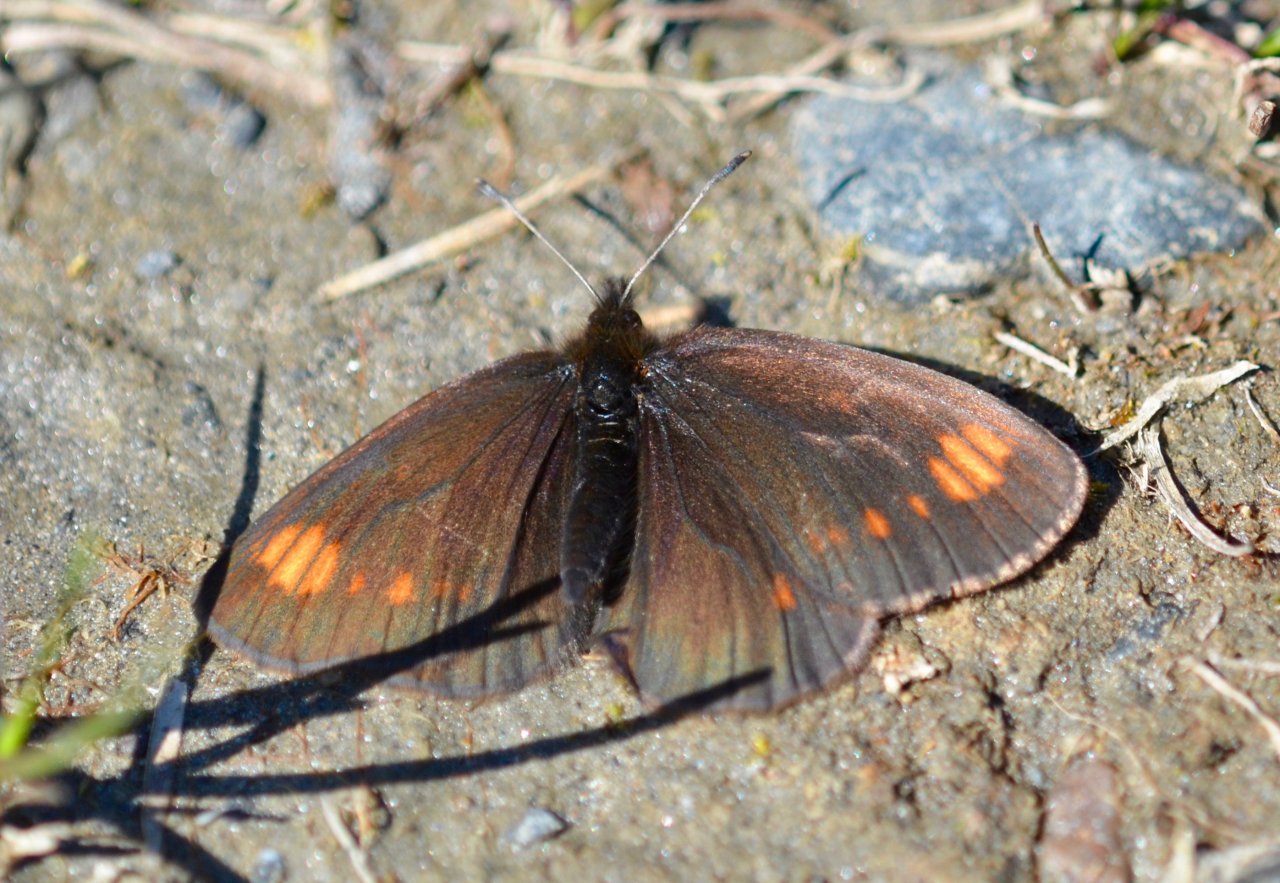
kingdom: Animalia
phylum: Arthropoda
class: Insecta
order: Lepidoptera
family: Nymphalidae
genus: Erebia
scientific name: Erebia pawloskii
